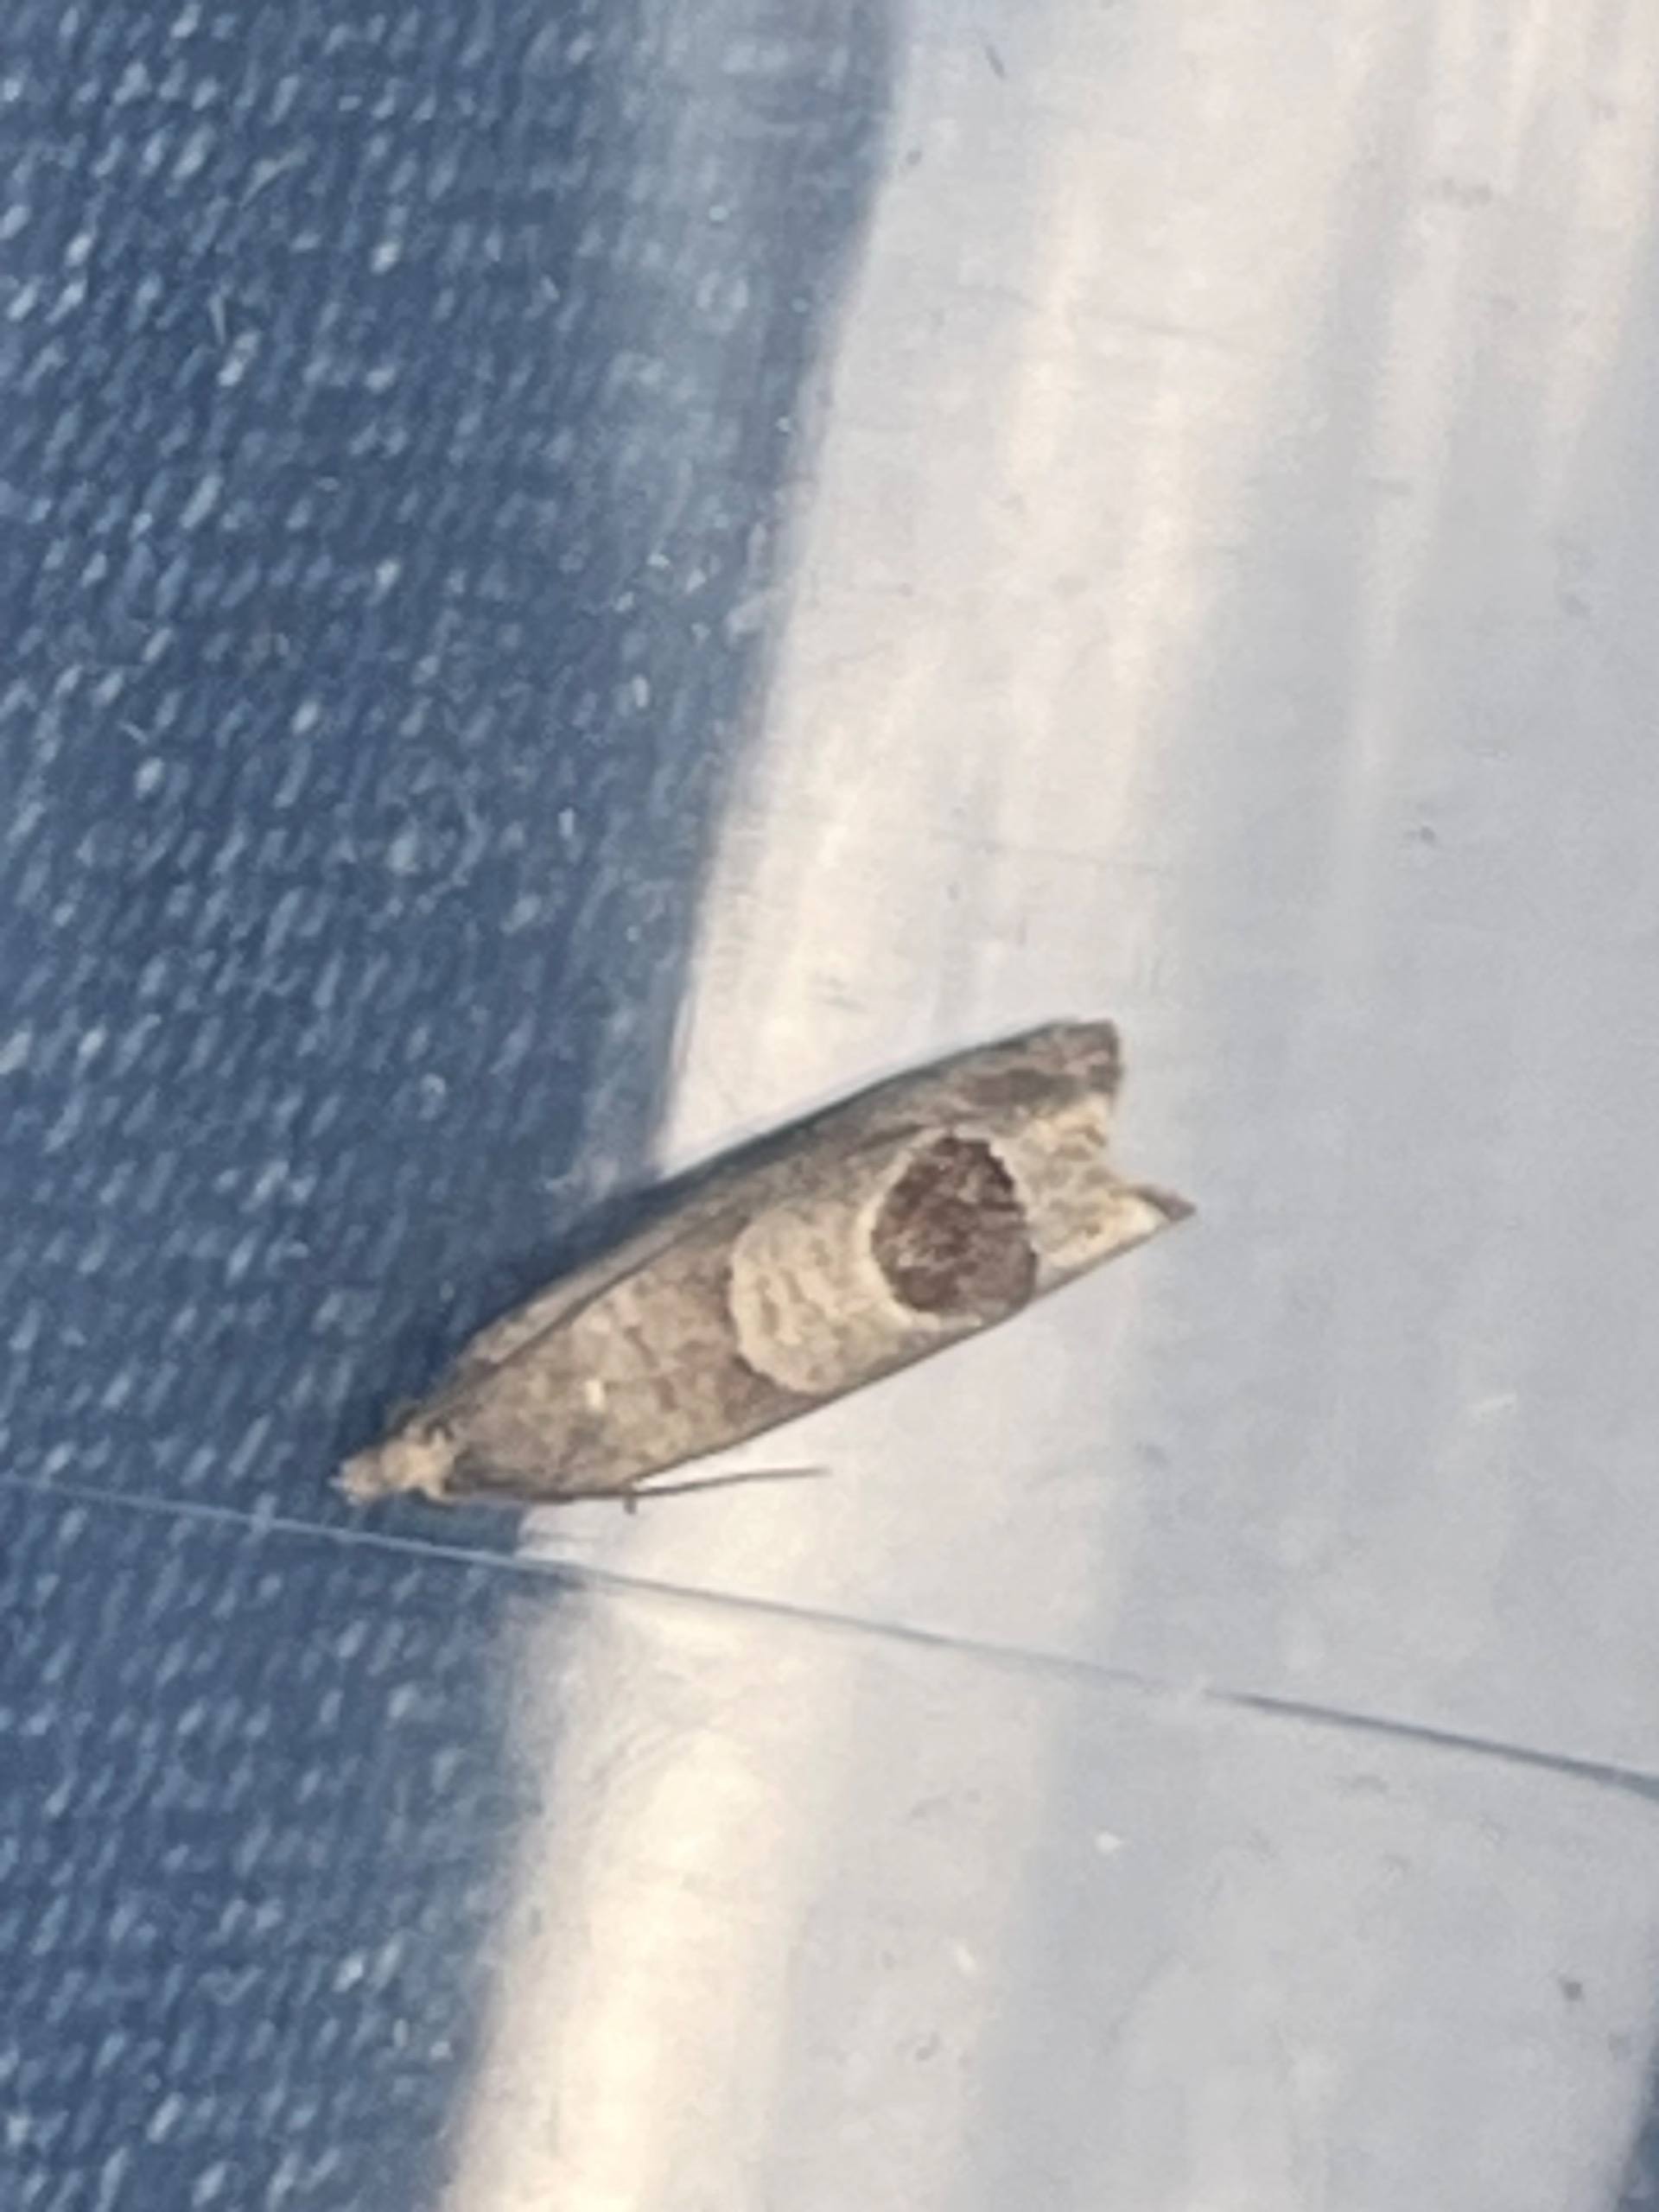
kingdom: Animalia
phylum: Arthropoda
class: Insecta
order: Lepidoptera
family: Tortricidae
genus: Notocelia
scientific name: Notocelia uddmanniana
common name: Brombærvikler
